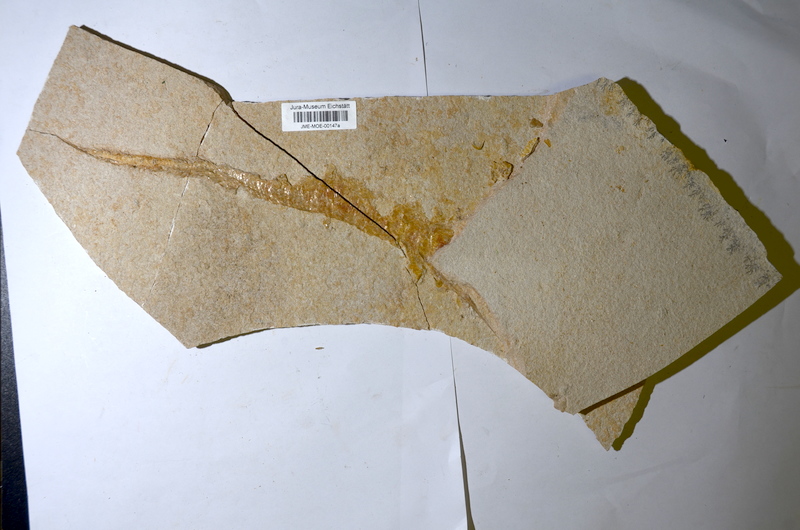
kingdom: Animalia
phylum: Chordata
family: Aspidorhynchidae
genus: Belonostomus
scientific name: Belonostomus
